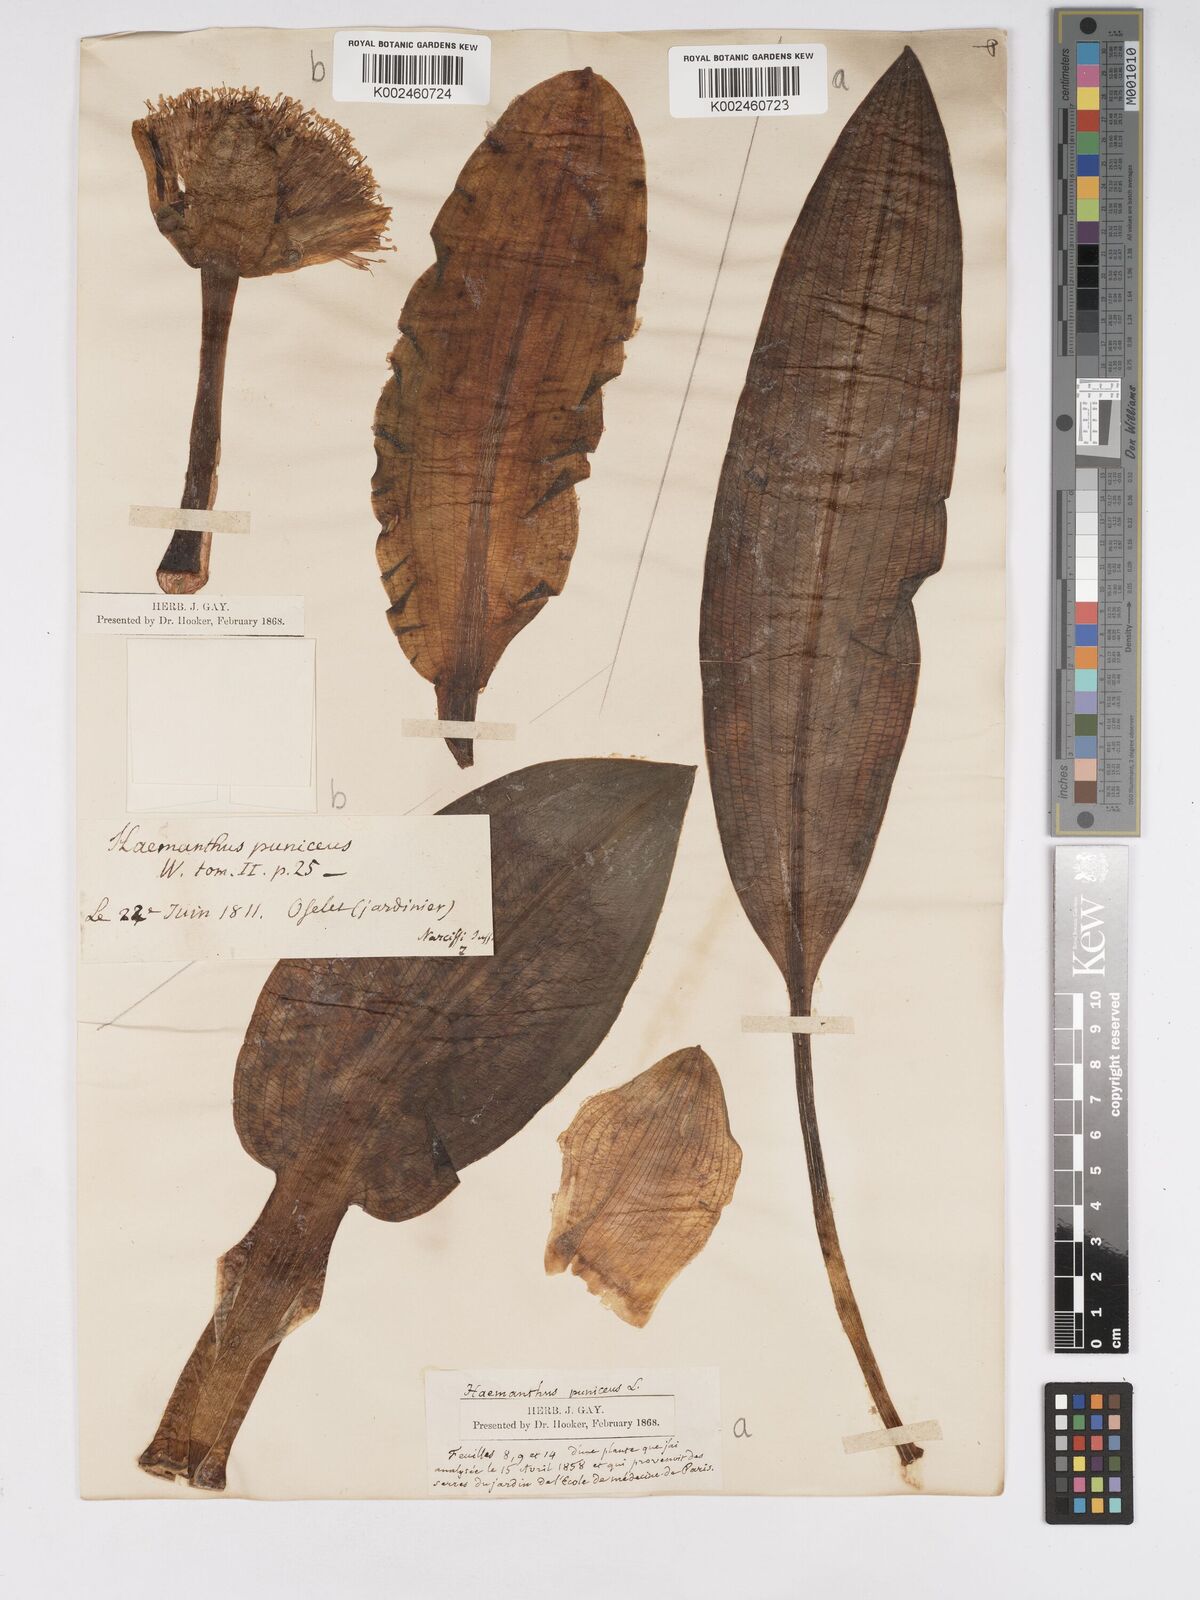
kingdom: Plantae
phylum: Tracheophyta
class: Liliopsida
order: Asparagales
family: Amaryllidaceae
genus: Scadoxus
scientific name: Scadoxus puniceus
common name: Royal-paintbrush
